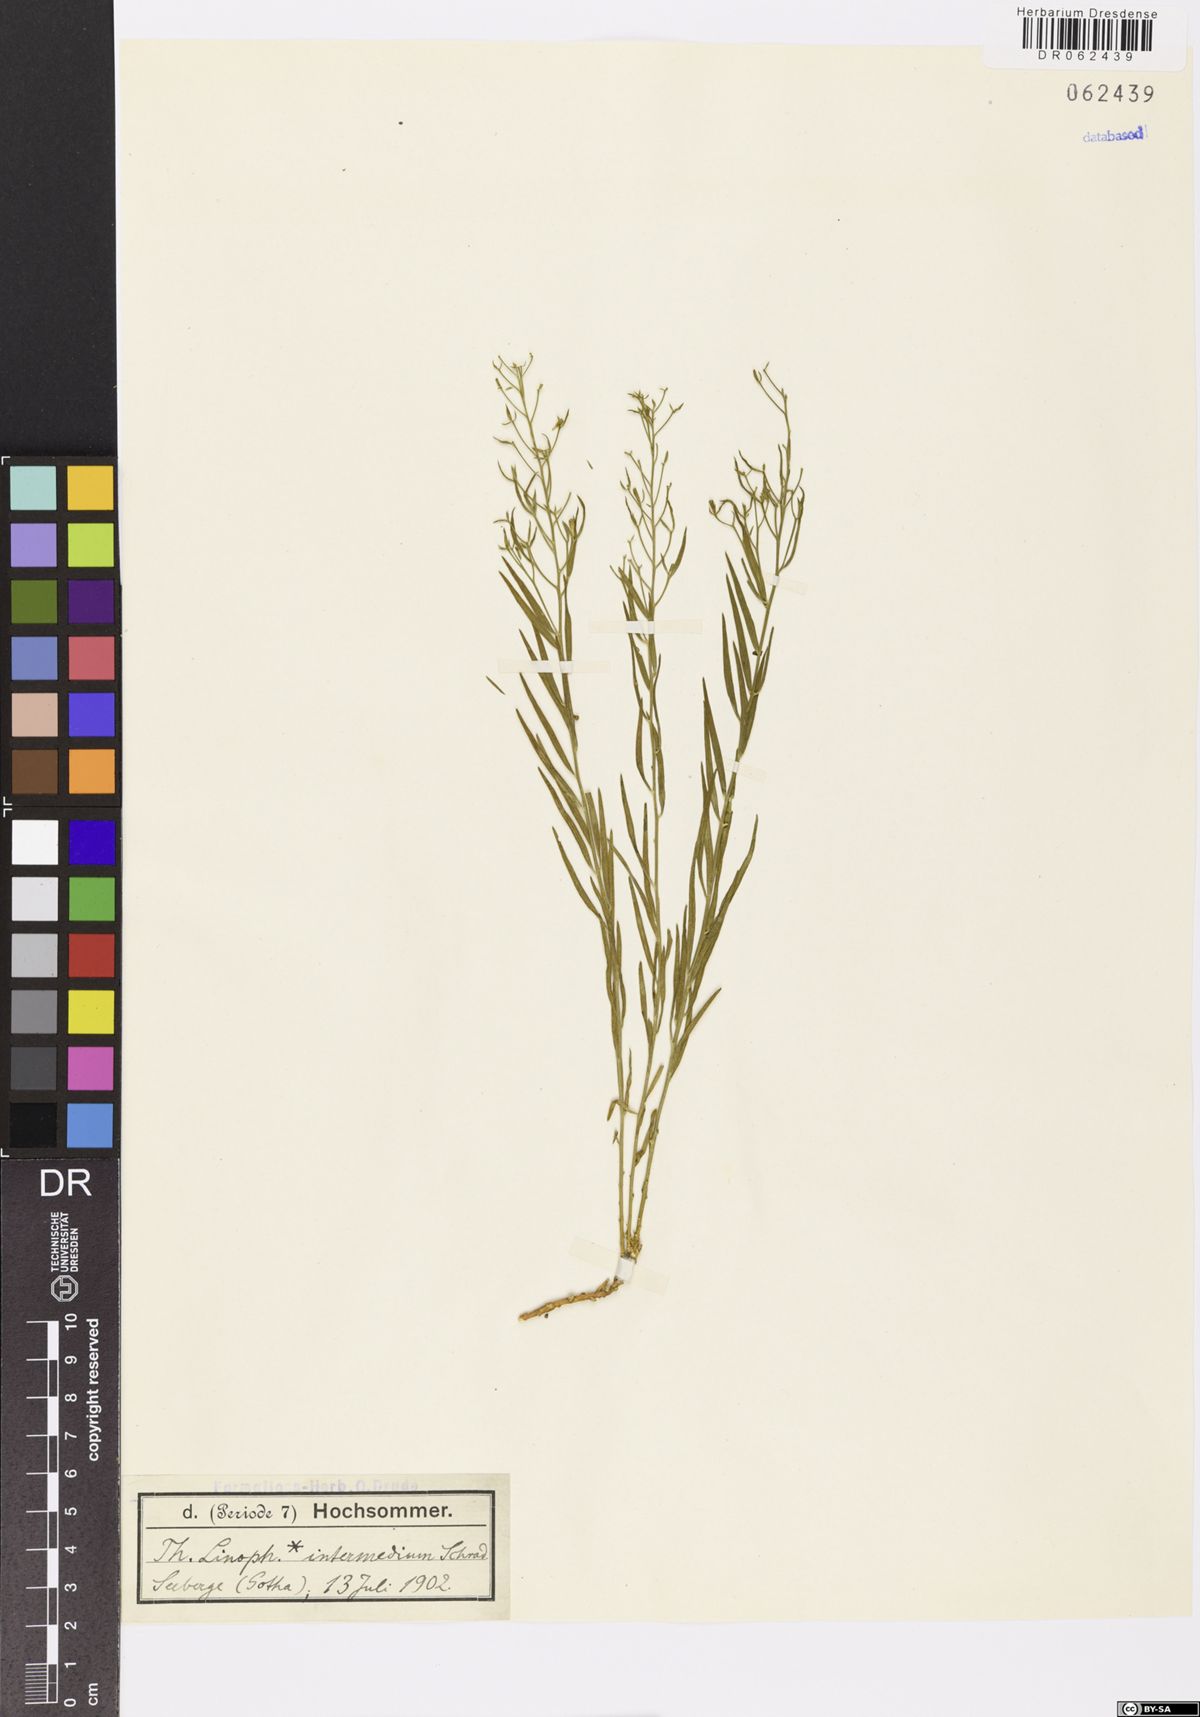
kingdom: Plantae
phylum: Tracheophyta
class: Magnoliopsida
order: Santalales
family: Thesiaceae
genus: Thesium
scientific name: Thesium linophyllon
